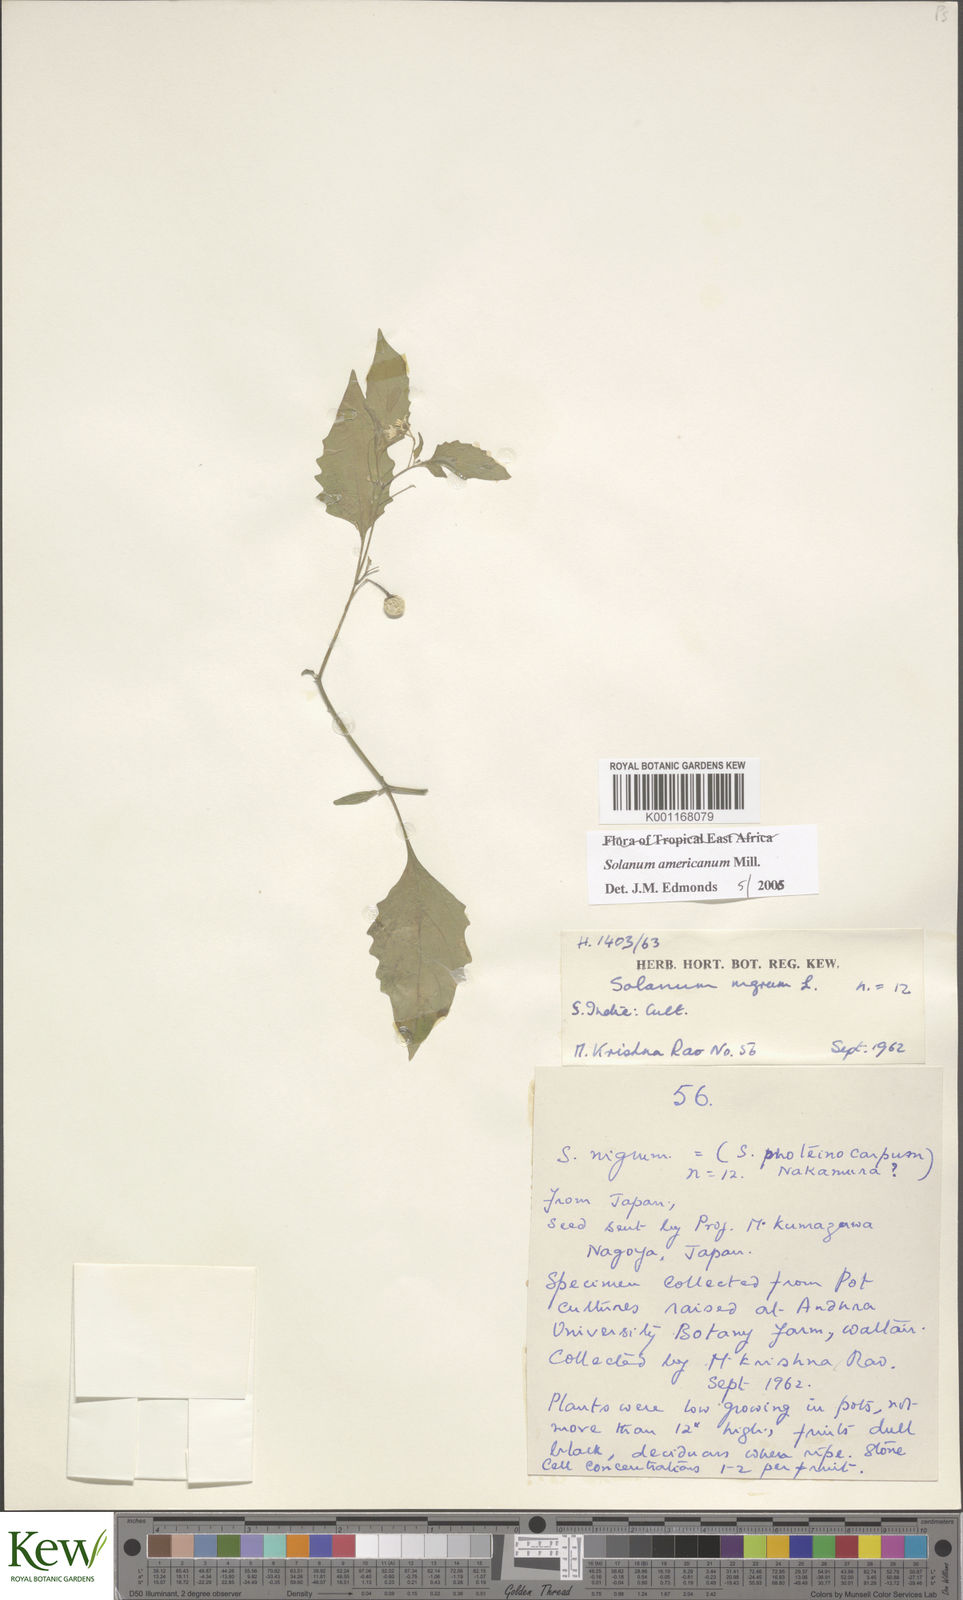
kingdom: Plantae
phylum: Tracheophyta
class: Magnoliopsida
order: Solanales
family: Solanaceae
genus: Solanum
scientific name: Solanum americanum
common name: American black nightshade
